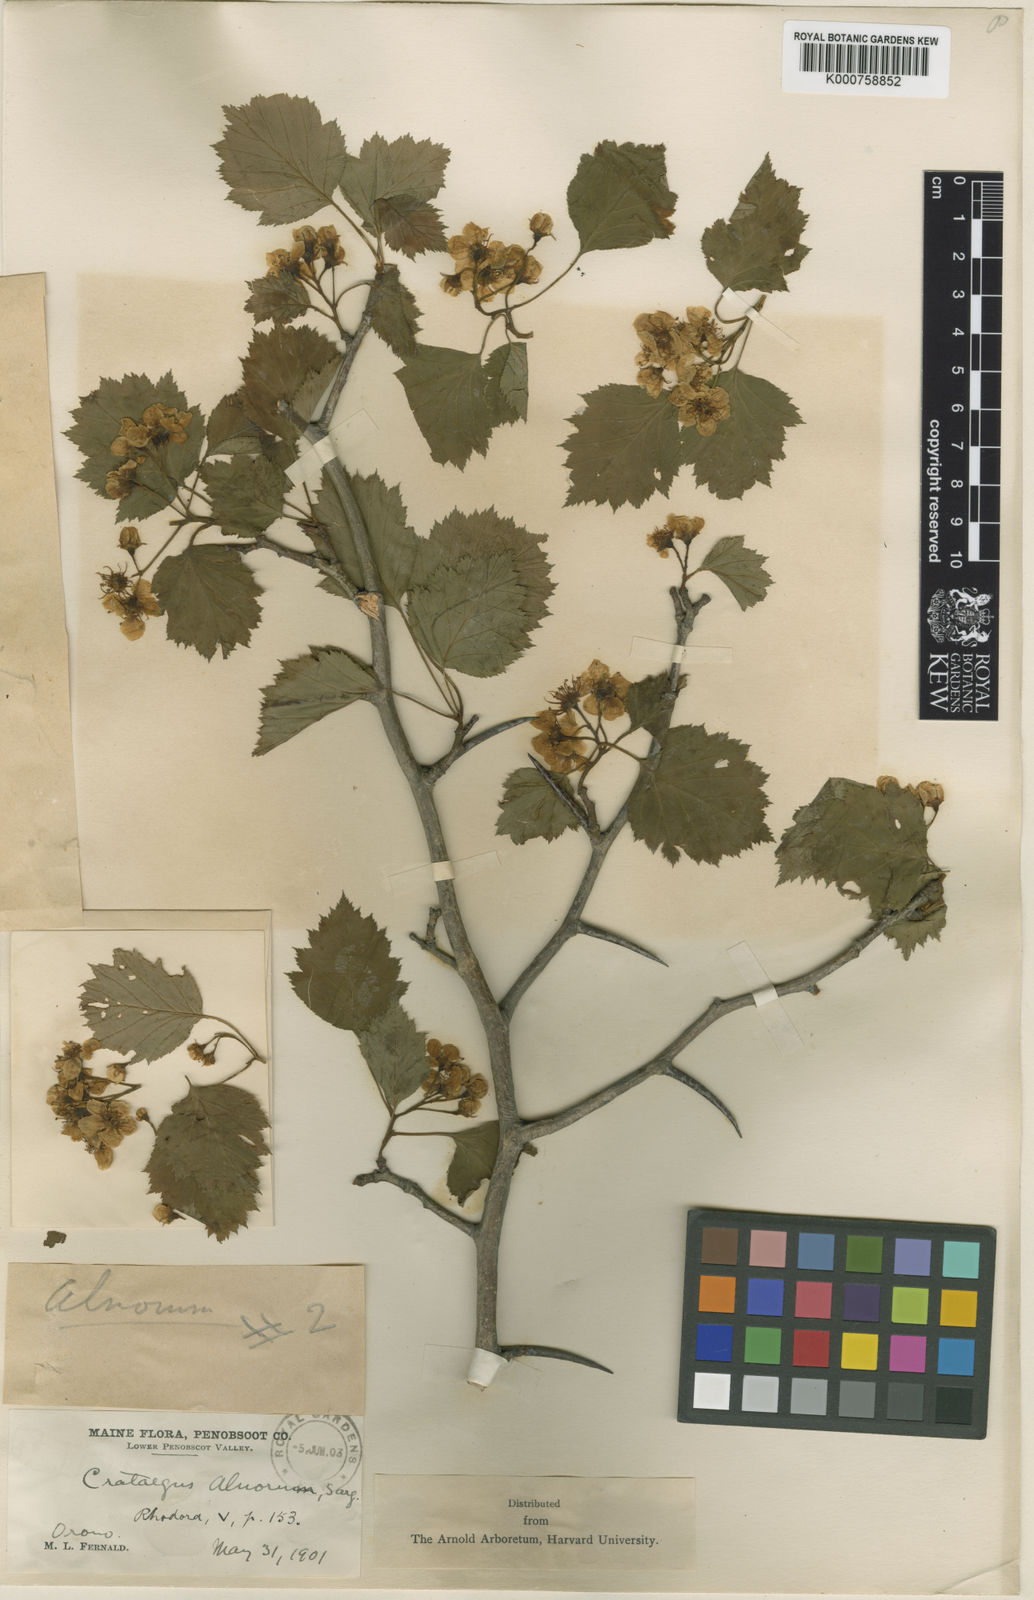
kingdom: Plantae
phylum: Tracheophyta
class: Magnoliopsida
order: Rosales
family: Rosaceae
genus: Crataegus
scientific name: Crataegus schuettei
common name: Schuette's hawthorn
